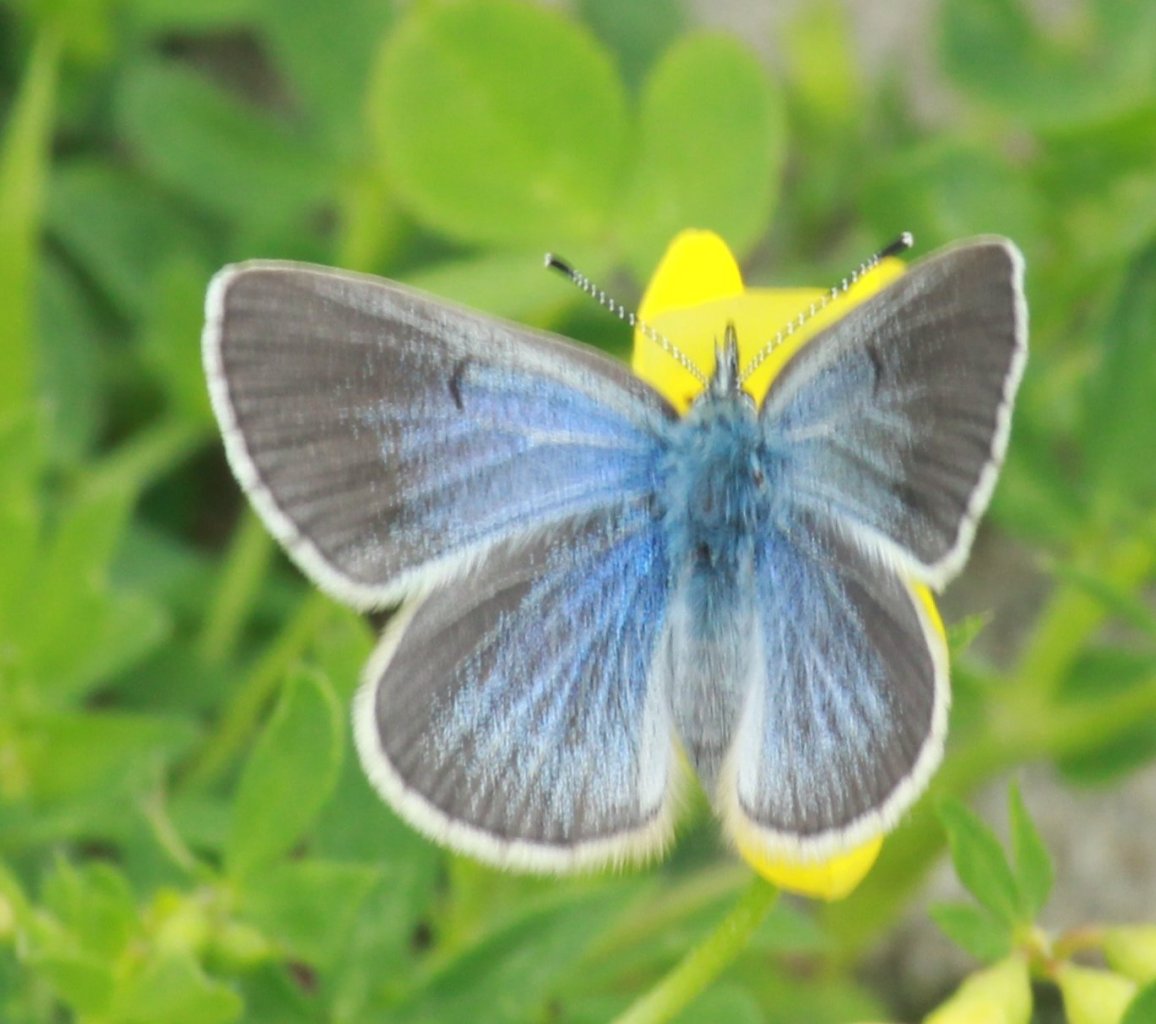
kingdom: Animalia
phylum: Arthropoda
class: Insecta
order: Lepidoptera
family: Lycaenidae
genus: Glaucopsyche
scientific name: Glaucopsyche lygdamus
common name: Silvery Blue
